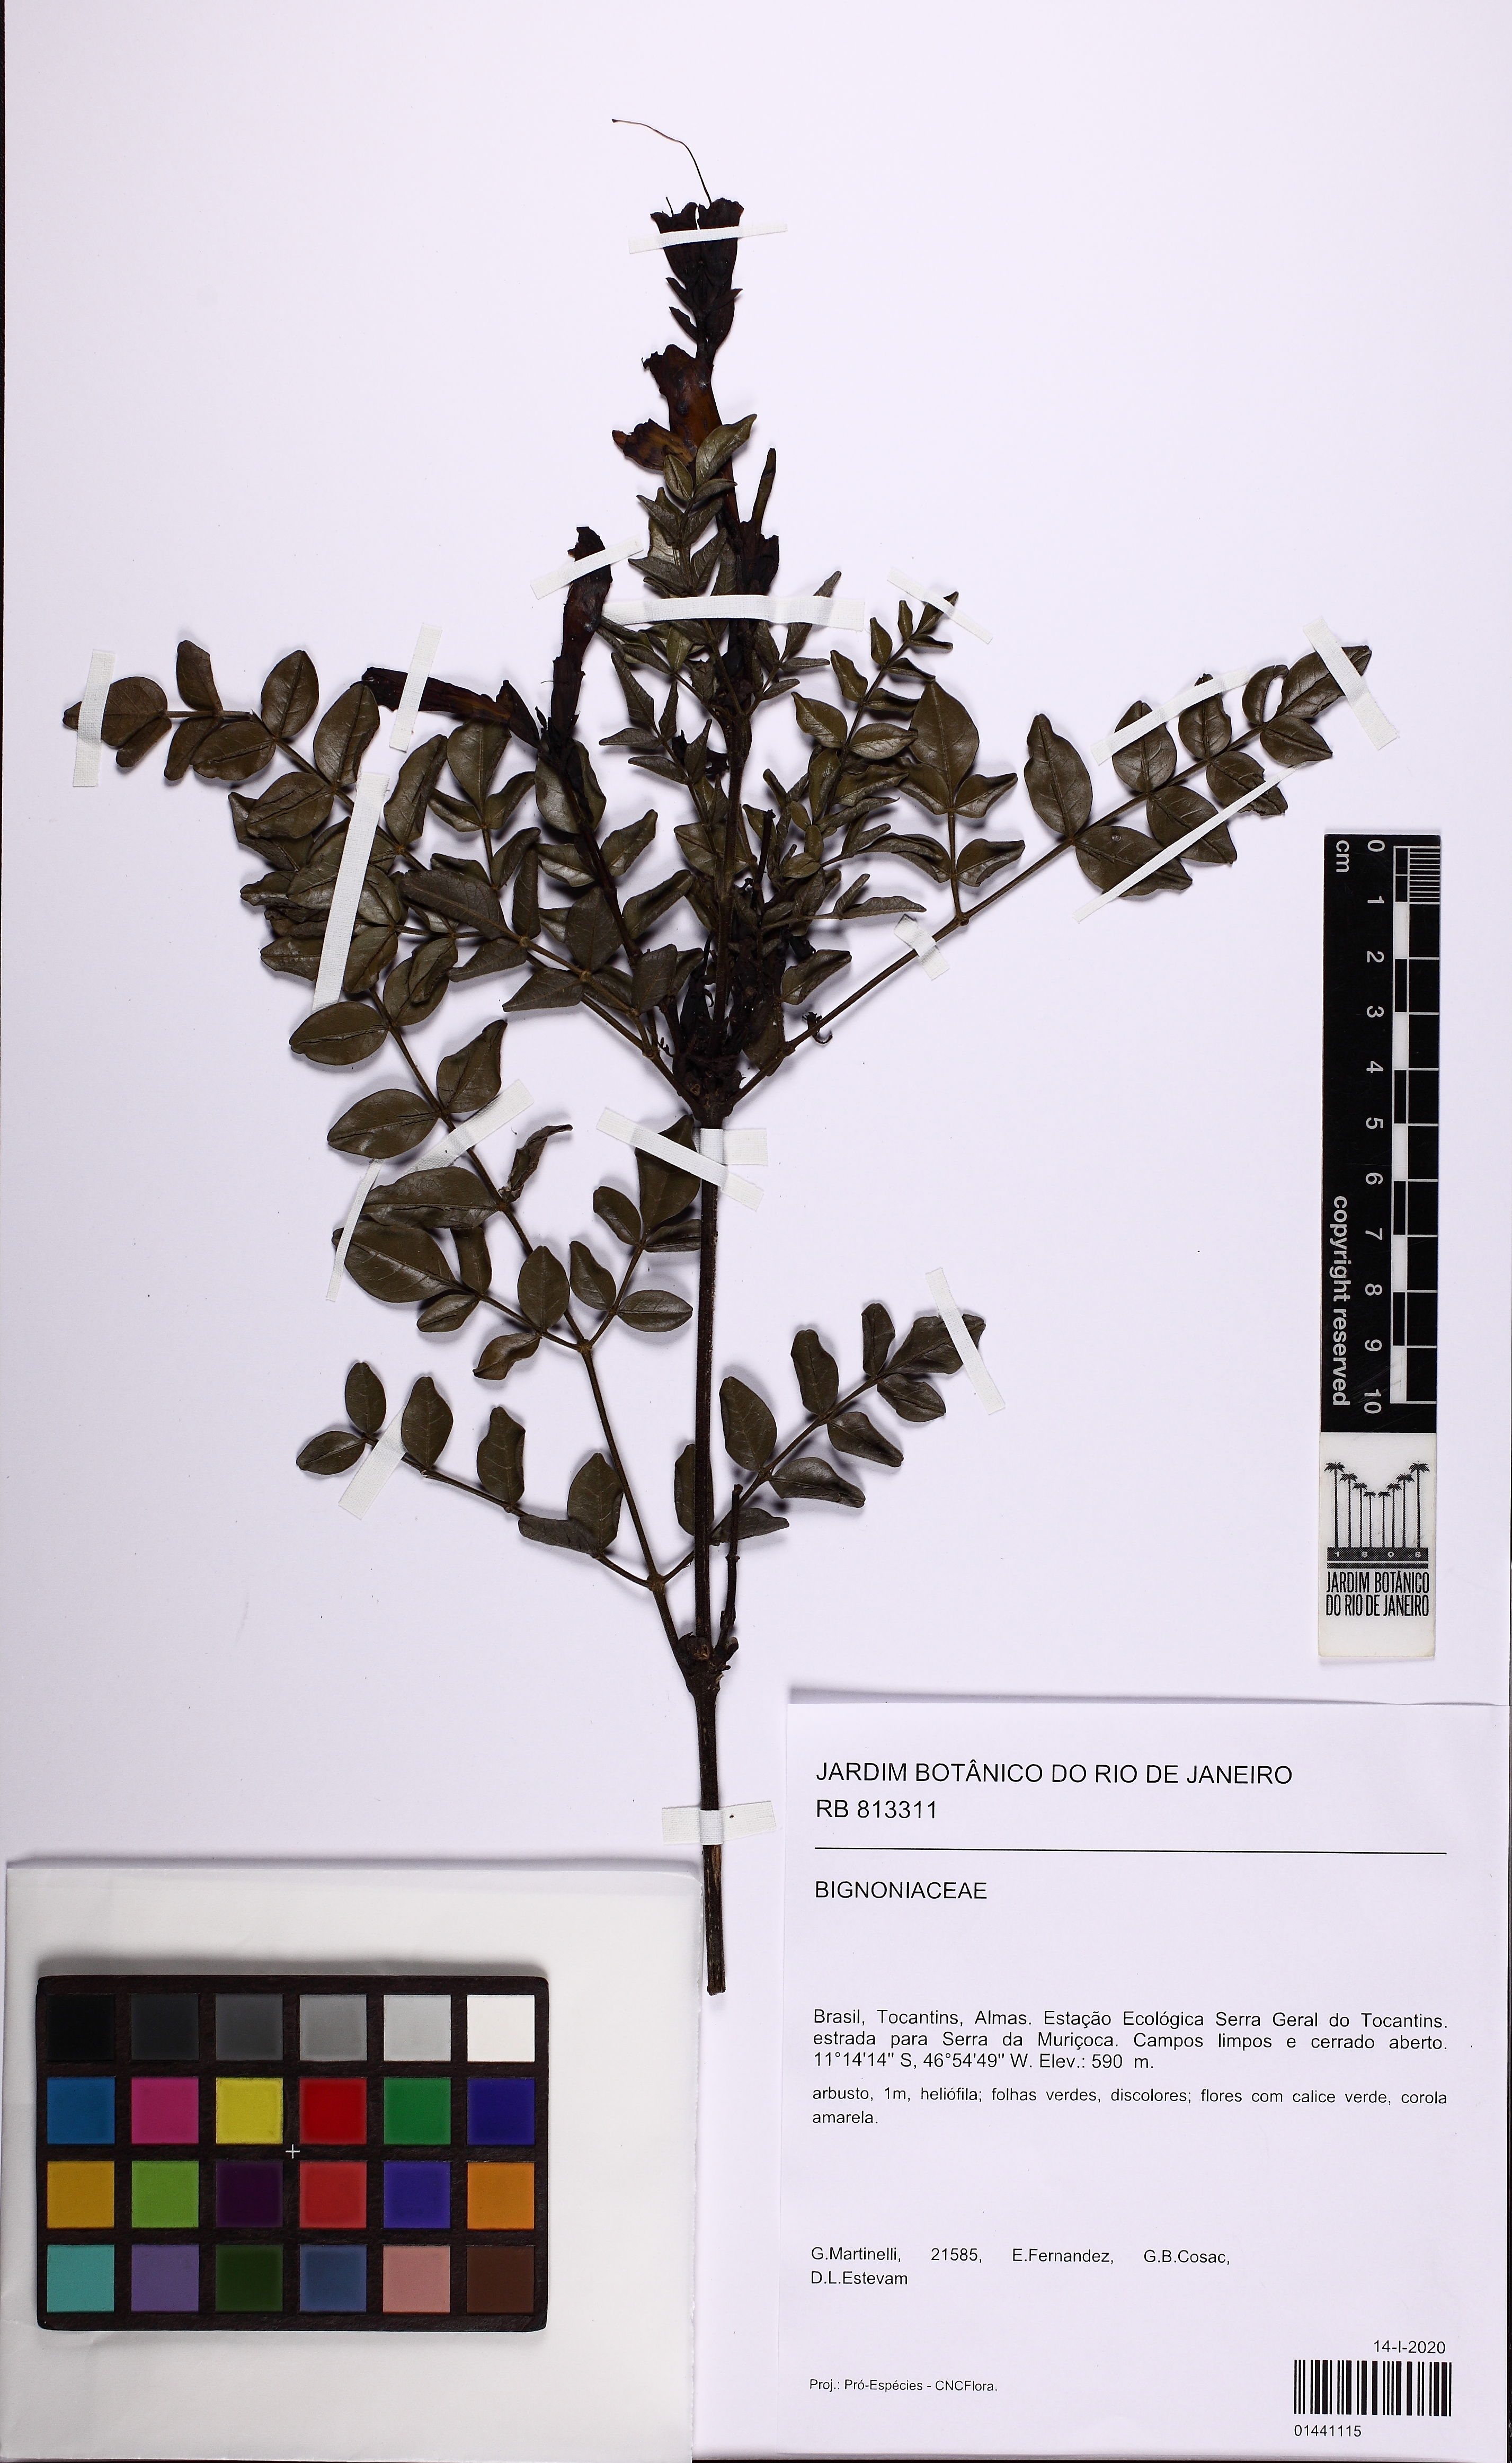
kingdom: Plantae
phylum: Tracheophyta
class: Magnoliopsida
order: Lamiales
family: Bignoniaceae
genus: Adenocalymma
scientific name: Adenocalymma
